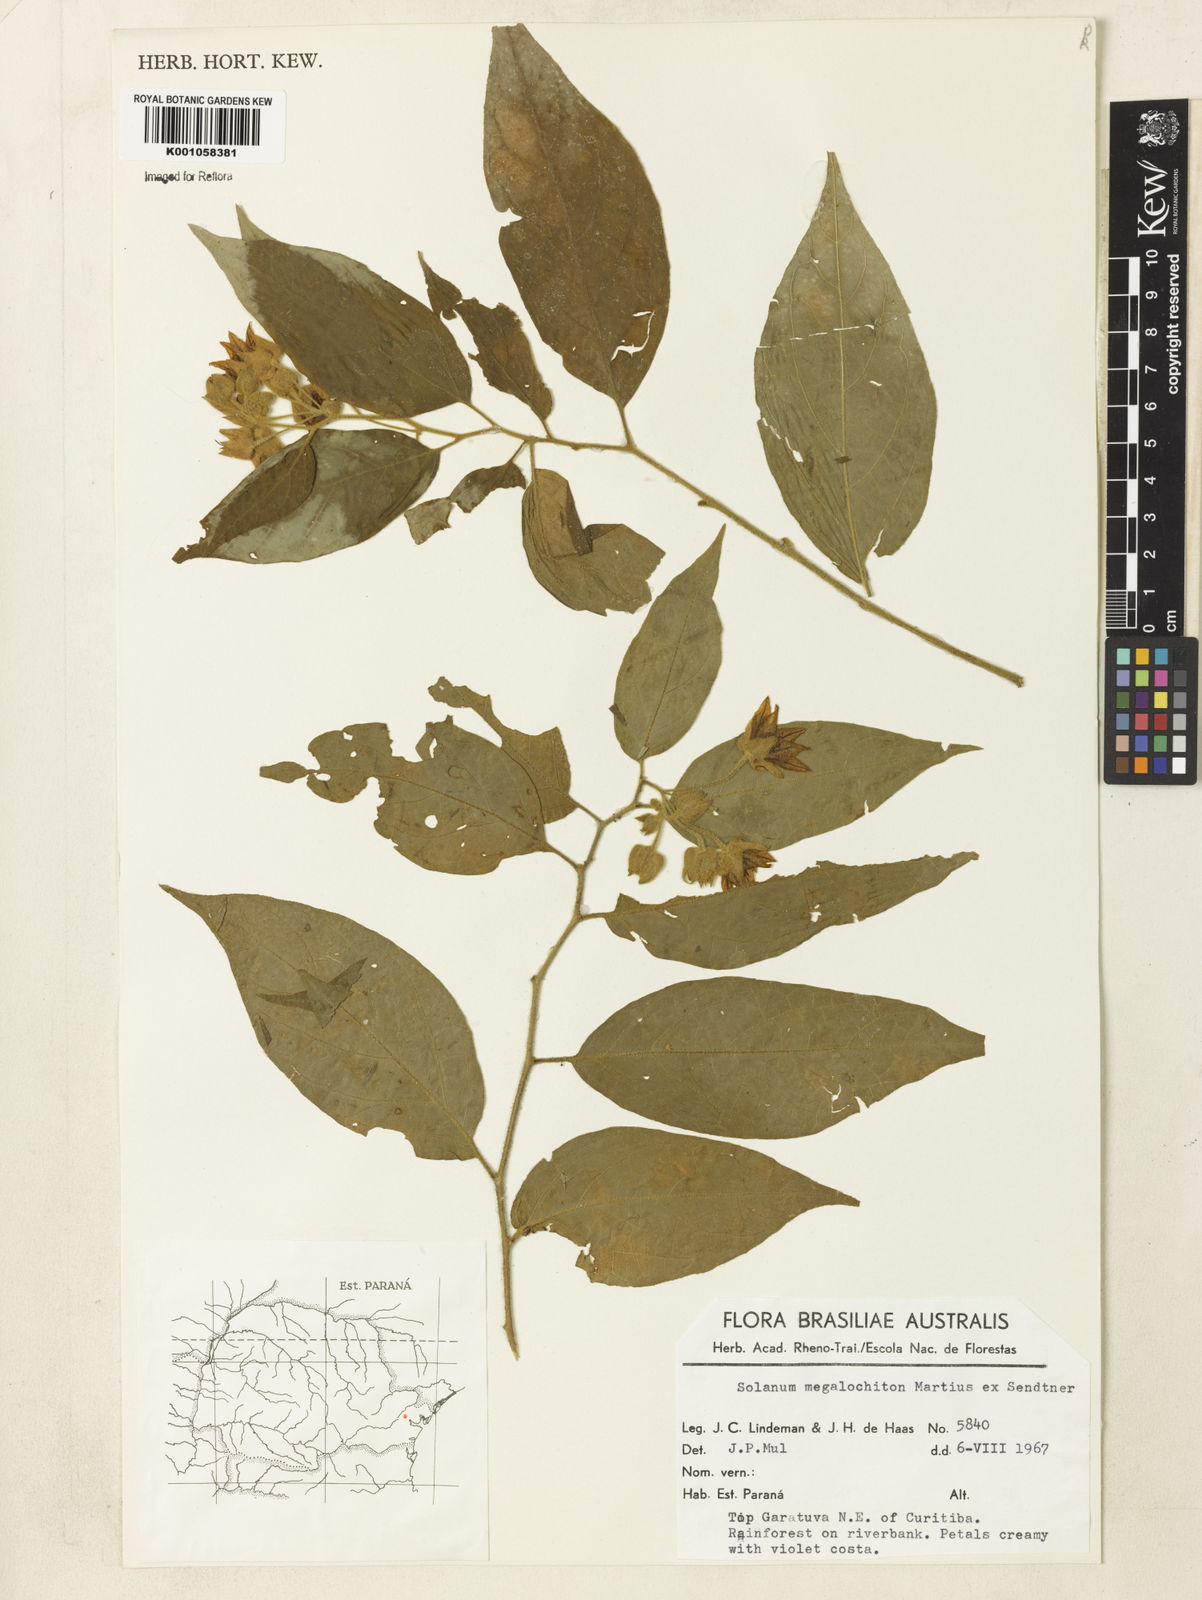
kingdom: Plantae
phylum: Tracheophyta
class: Magnoliopsida
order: Solanales
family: Solanaceae
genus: Solanum
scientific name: Solanum didymum
